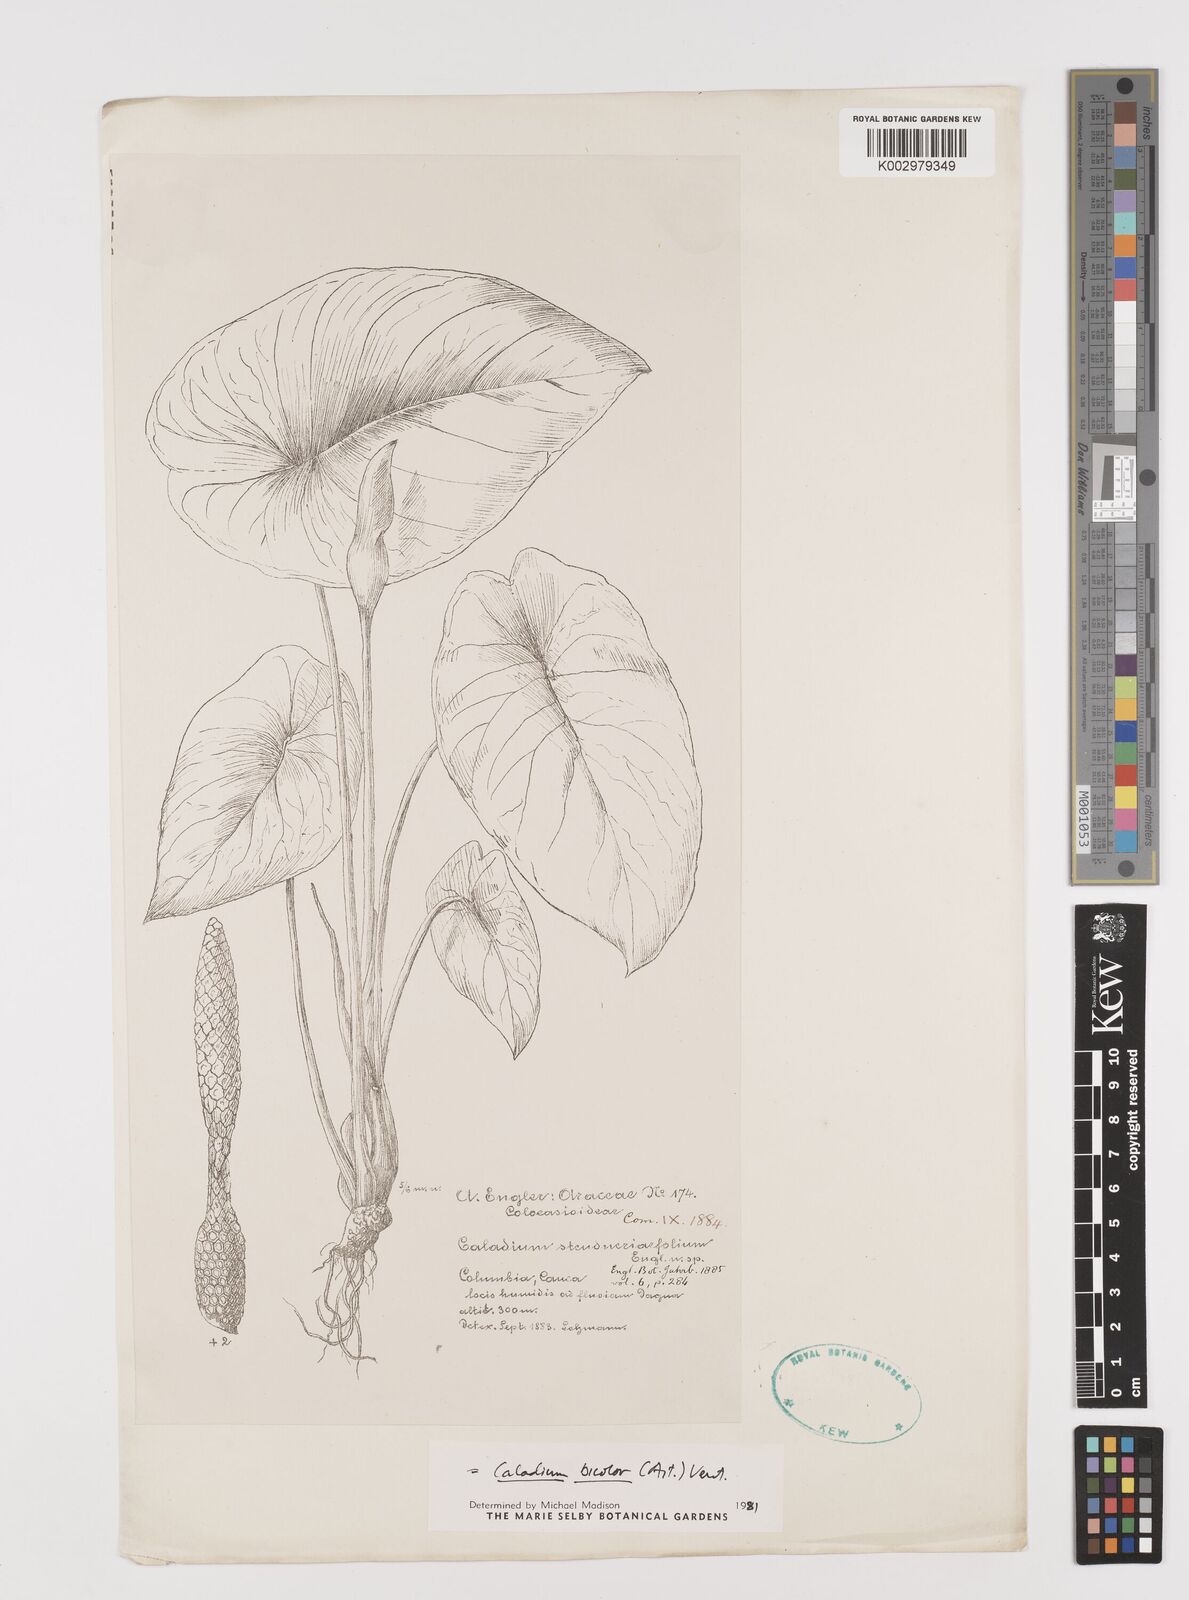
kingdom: Plantae
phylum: Tracheophyta
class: Liliopsida
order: Alismatales
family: Araceae
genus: Caladium
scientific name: Caladium bicolor
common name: Artist's pallet
